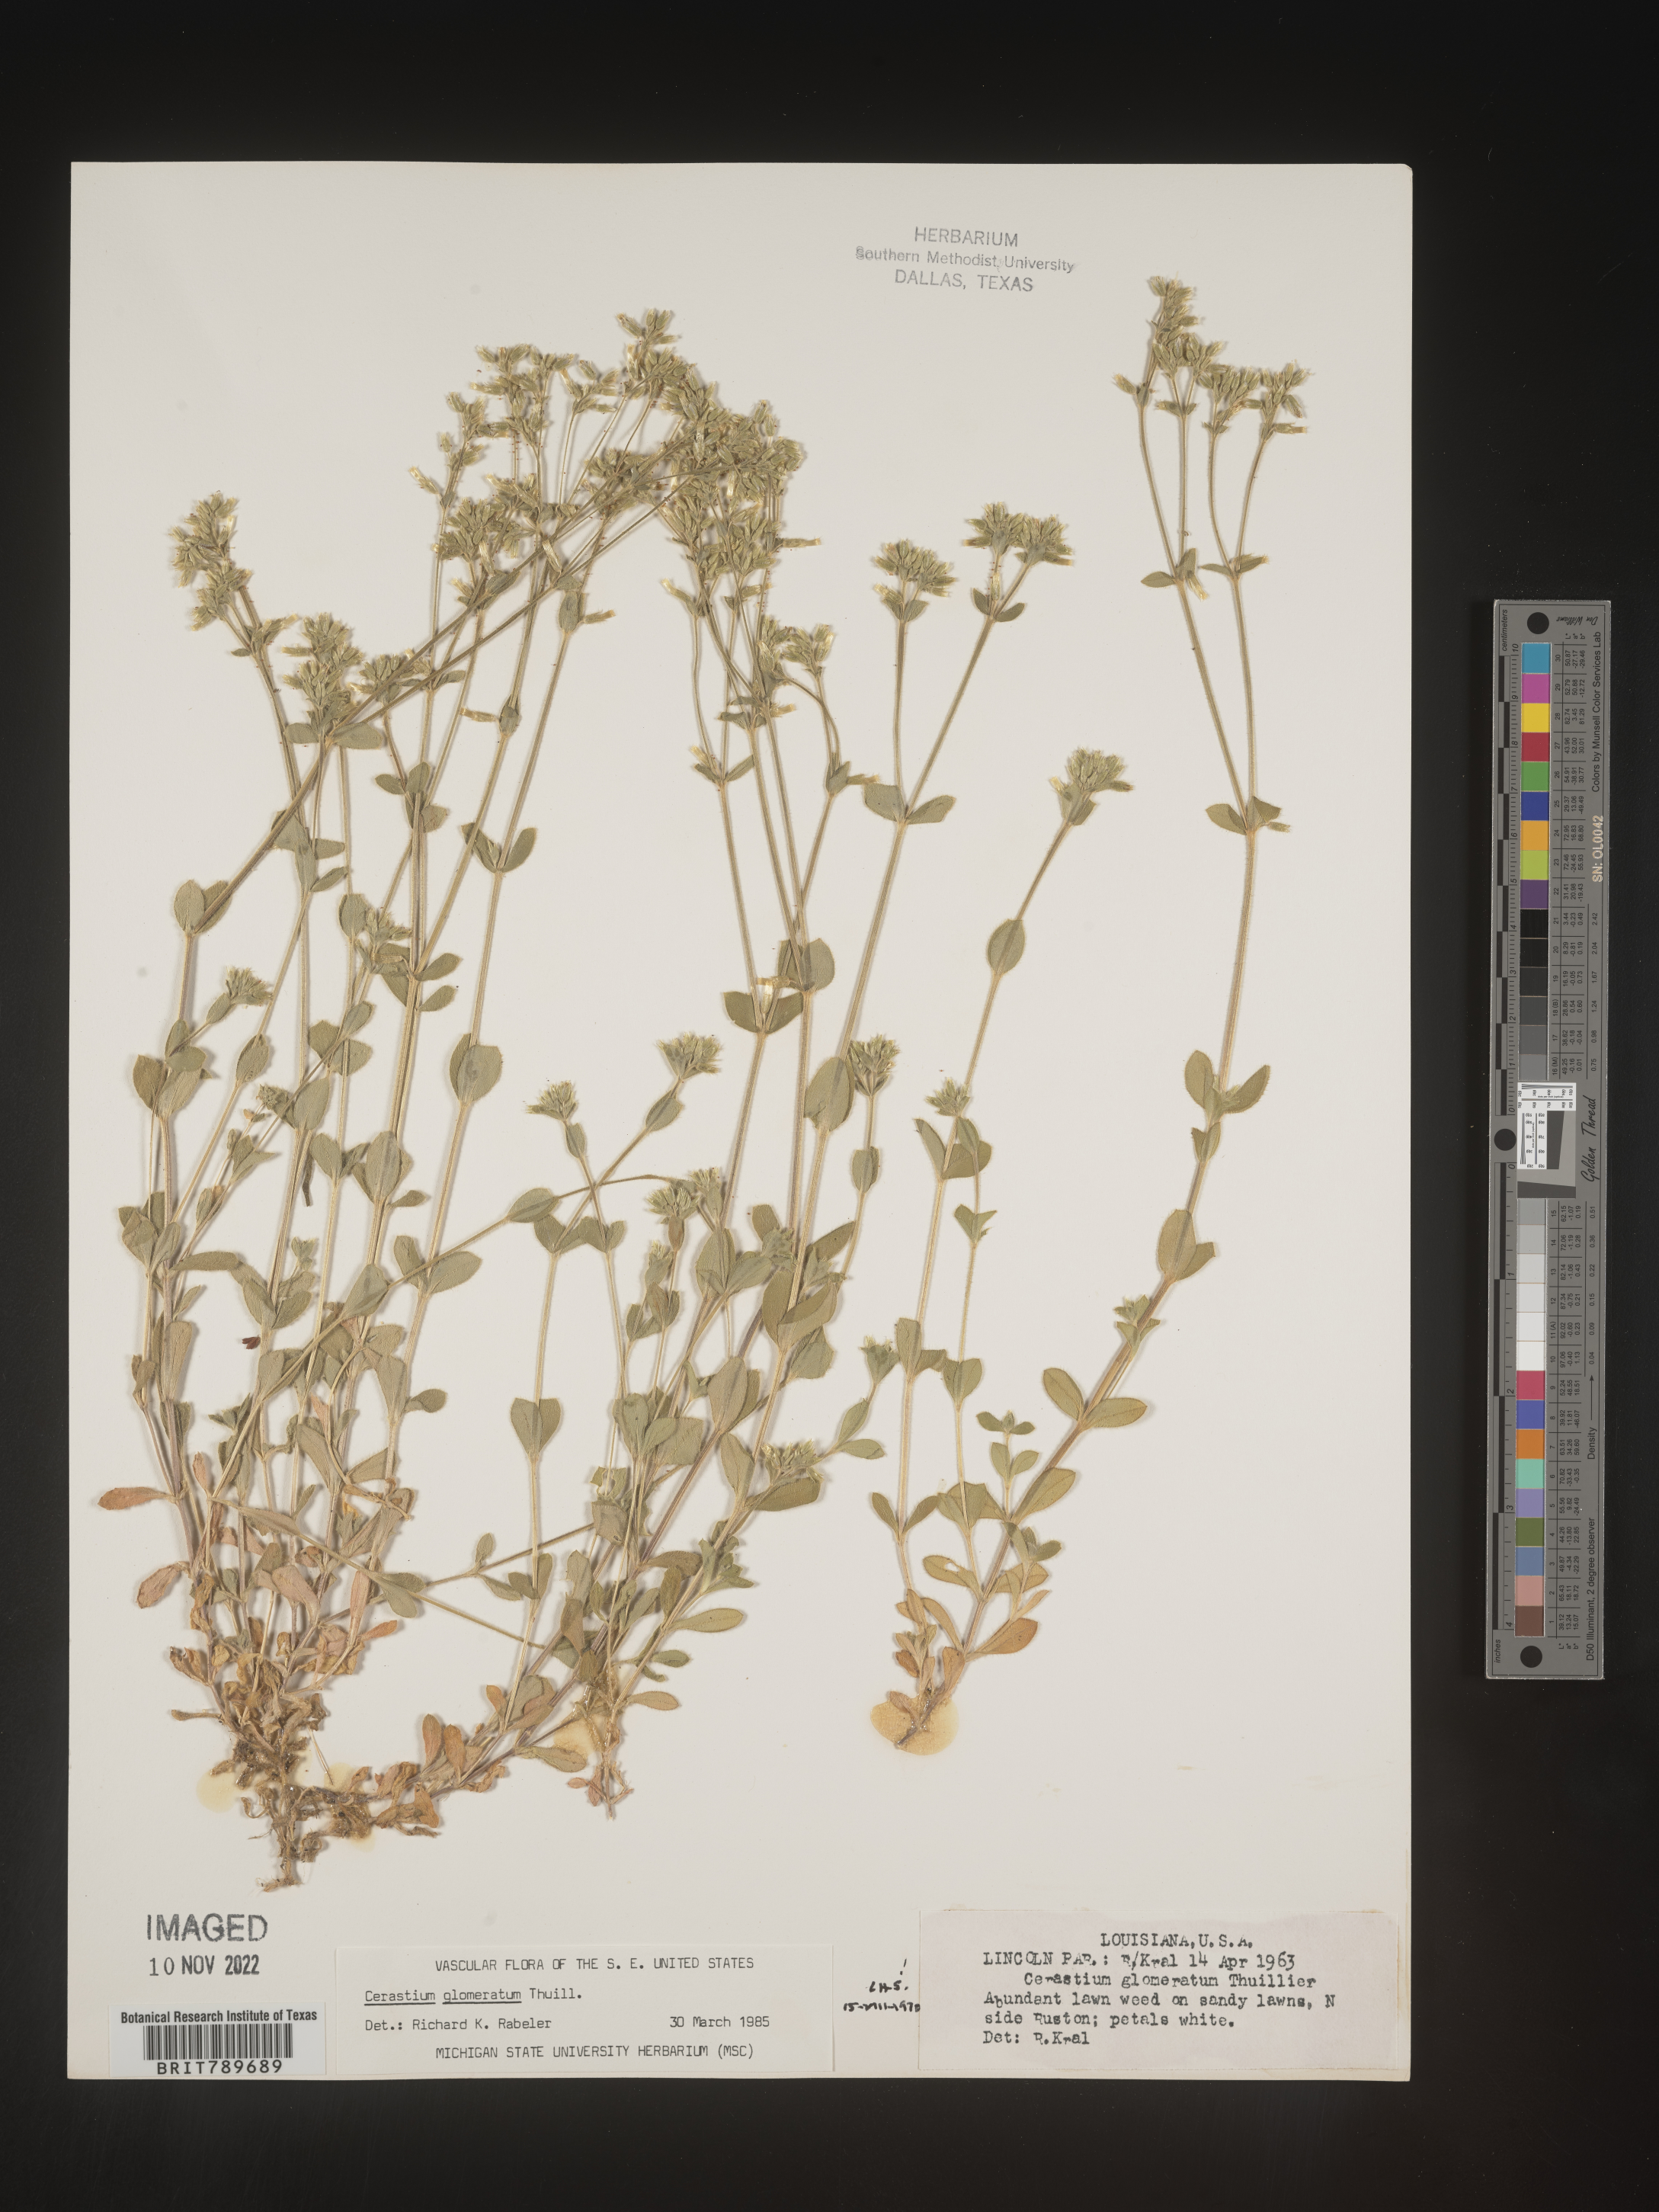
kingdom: Plantae
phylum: Tracheophyta
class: Magnoliopsida
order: Caryophyllales
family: Caryophyllaceae
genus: Cerastium
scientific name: Cerastium glomeratum
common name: Sticky chickweed
